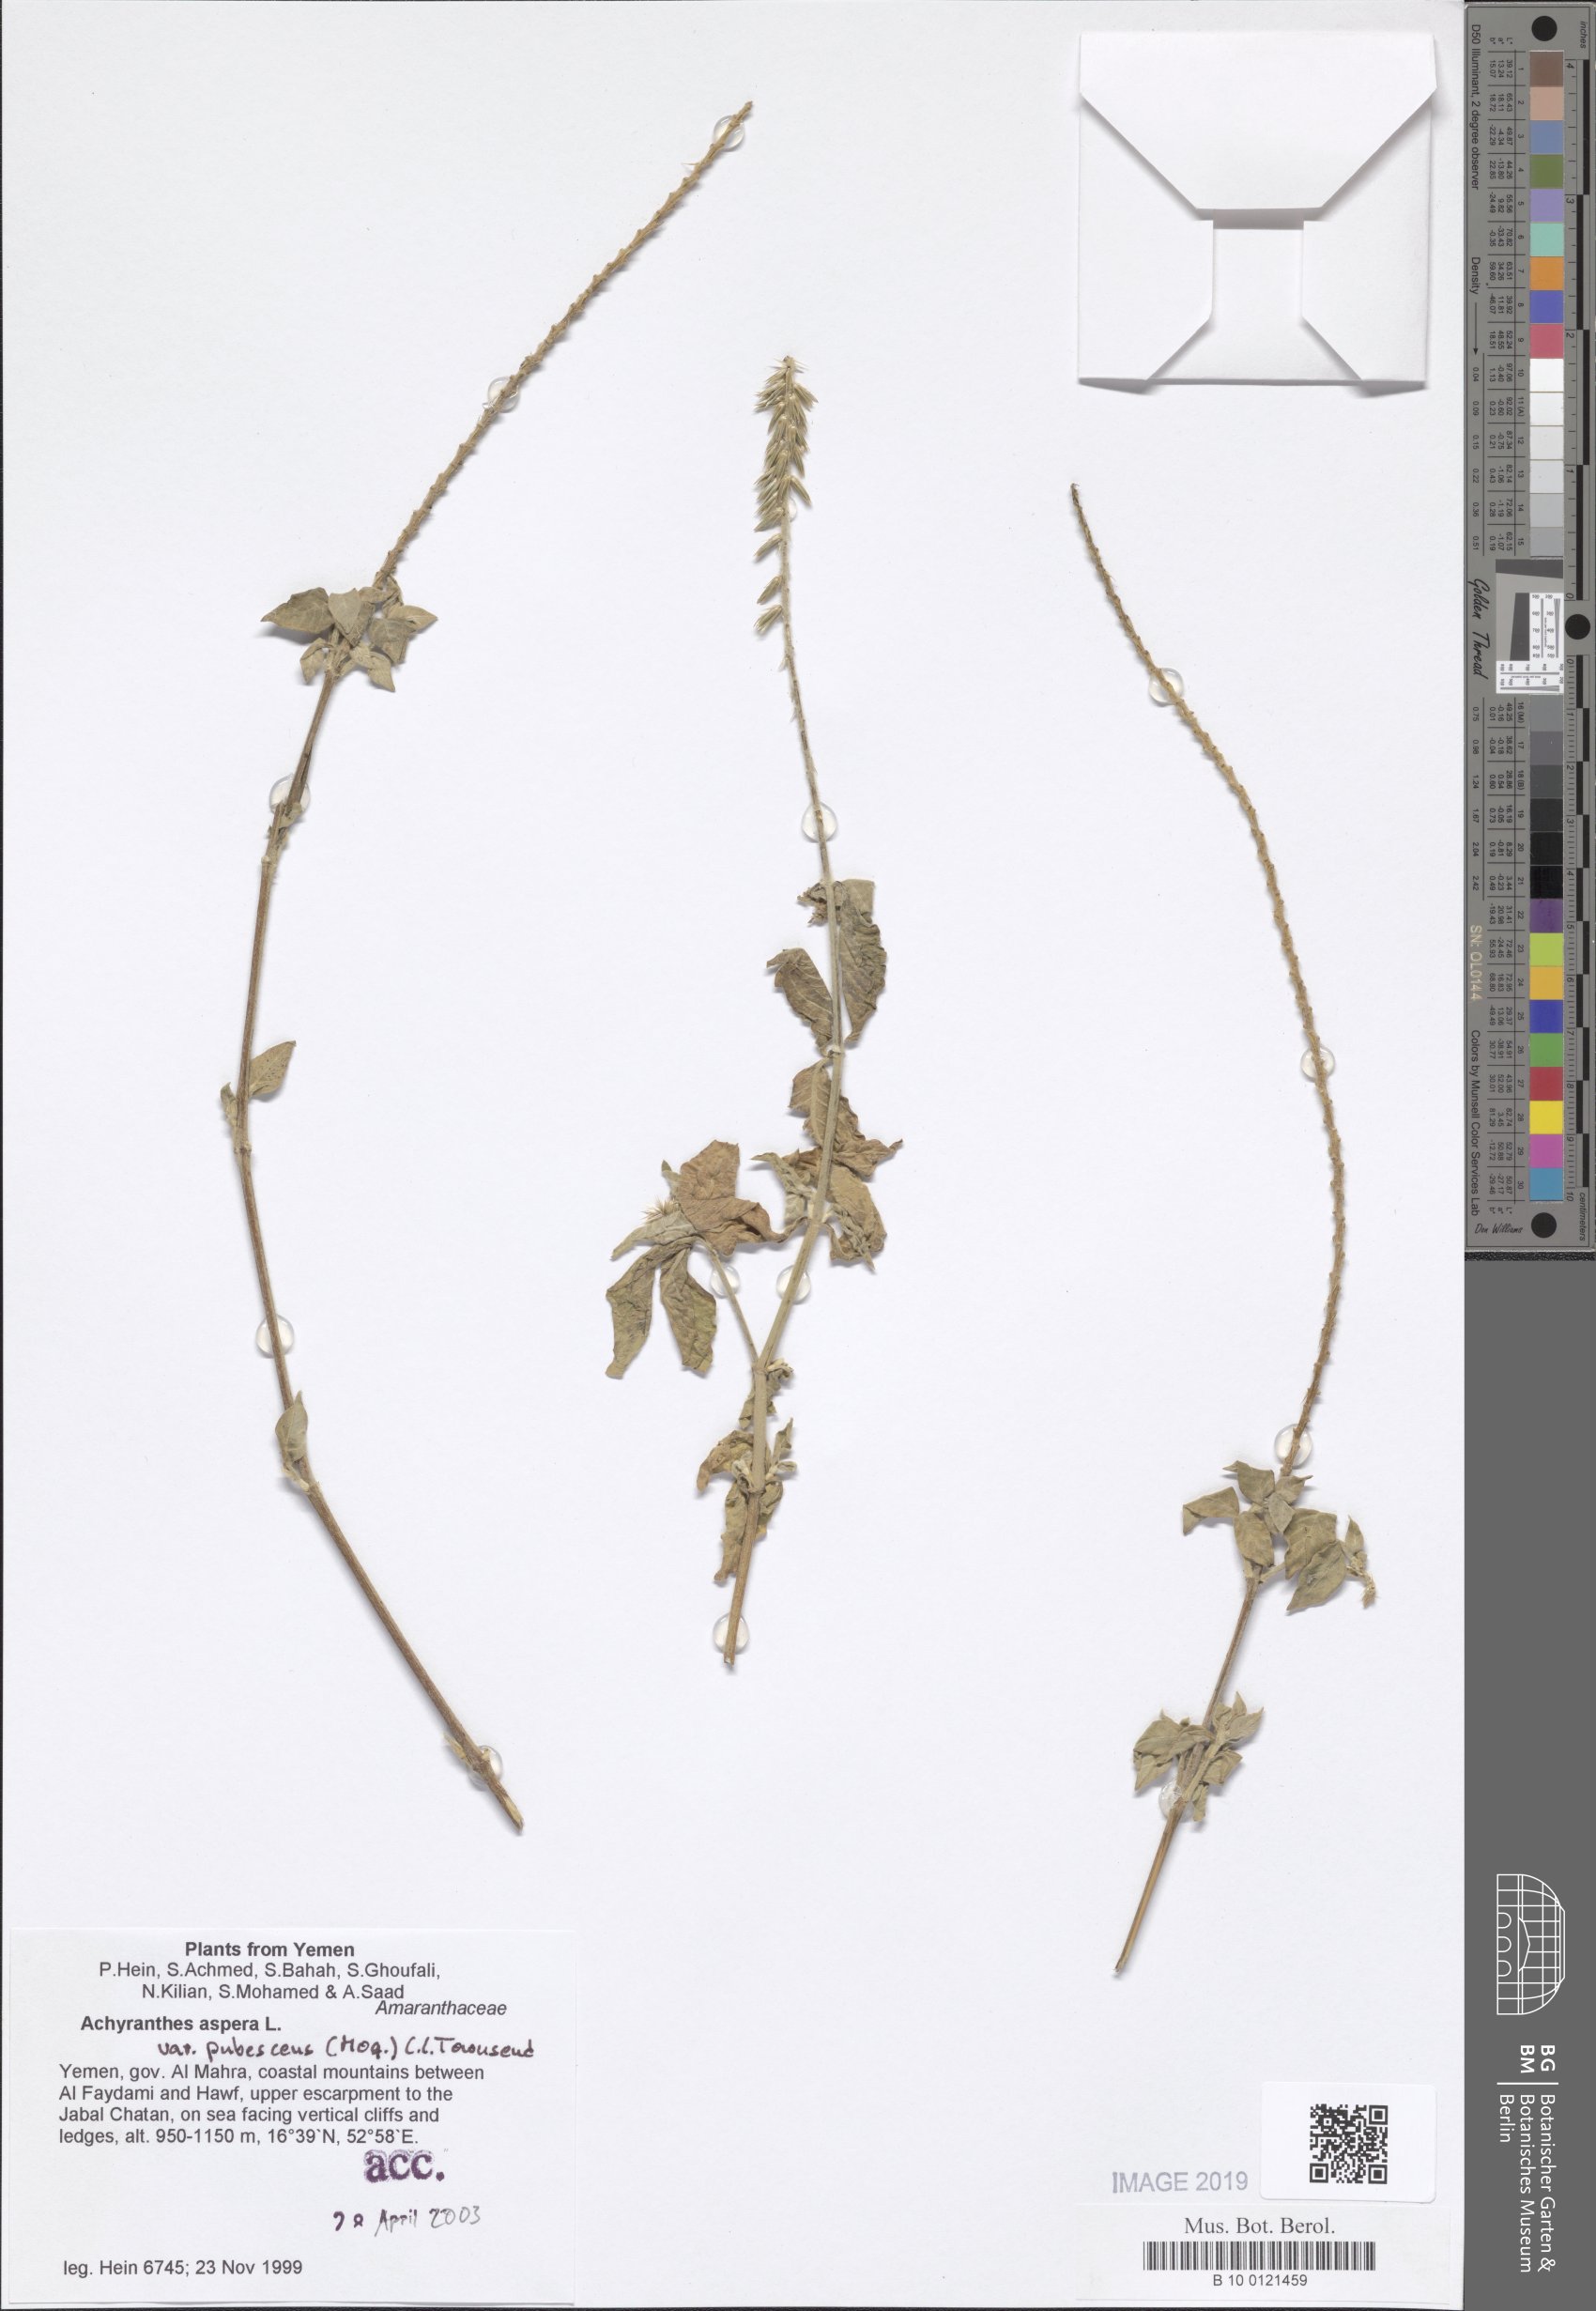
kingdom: Plantae
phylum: Tracheophyta
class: Magnoliopsida
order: Caryophyllales
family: Amaranthaceae
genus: Achyranthes
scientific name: Achyranthes aspera
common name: Devil's horsewhip
